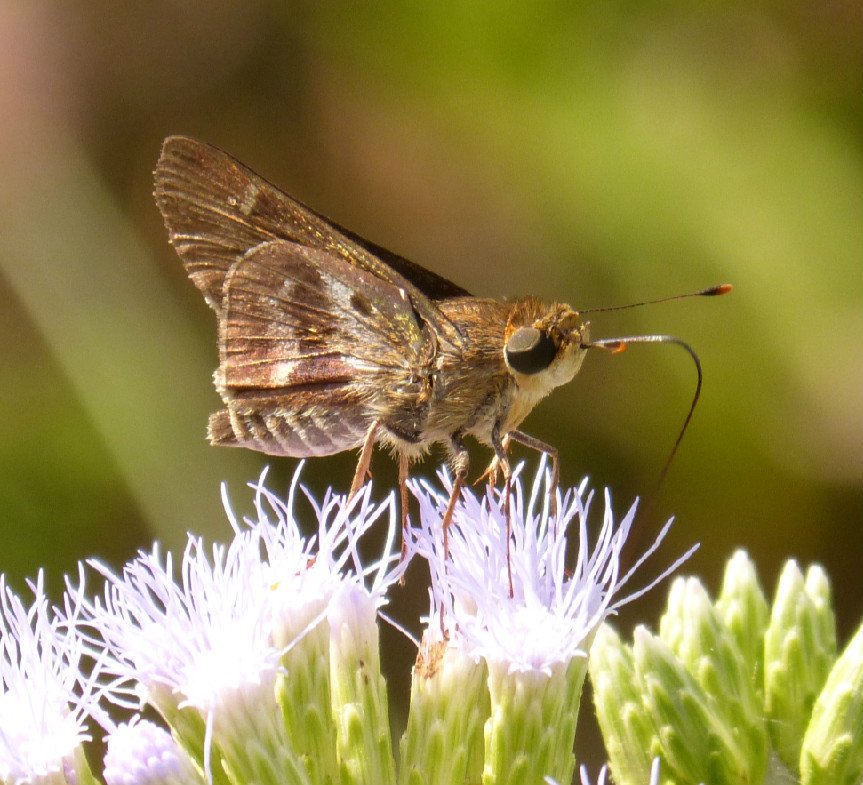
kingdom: Animalia
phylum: Arthropoda
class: Insecta
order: Lepidoptera
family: Hesperiidae
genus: Nyctelius
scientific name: Nyctelius nyctelius
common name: Violet-banded Skipper
